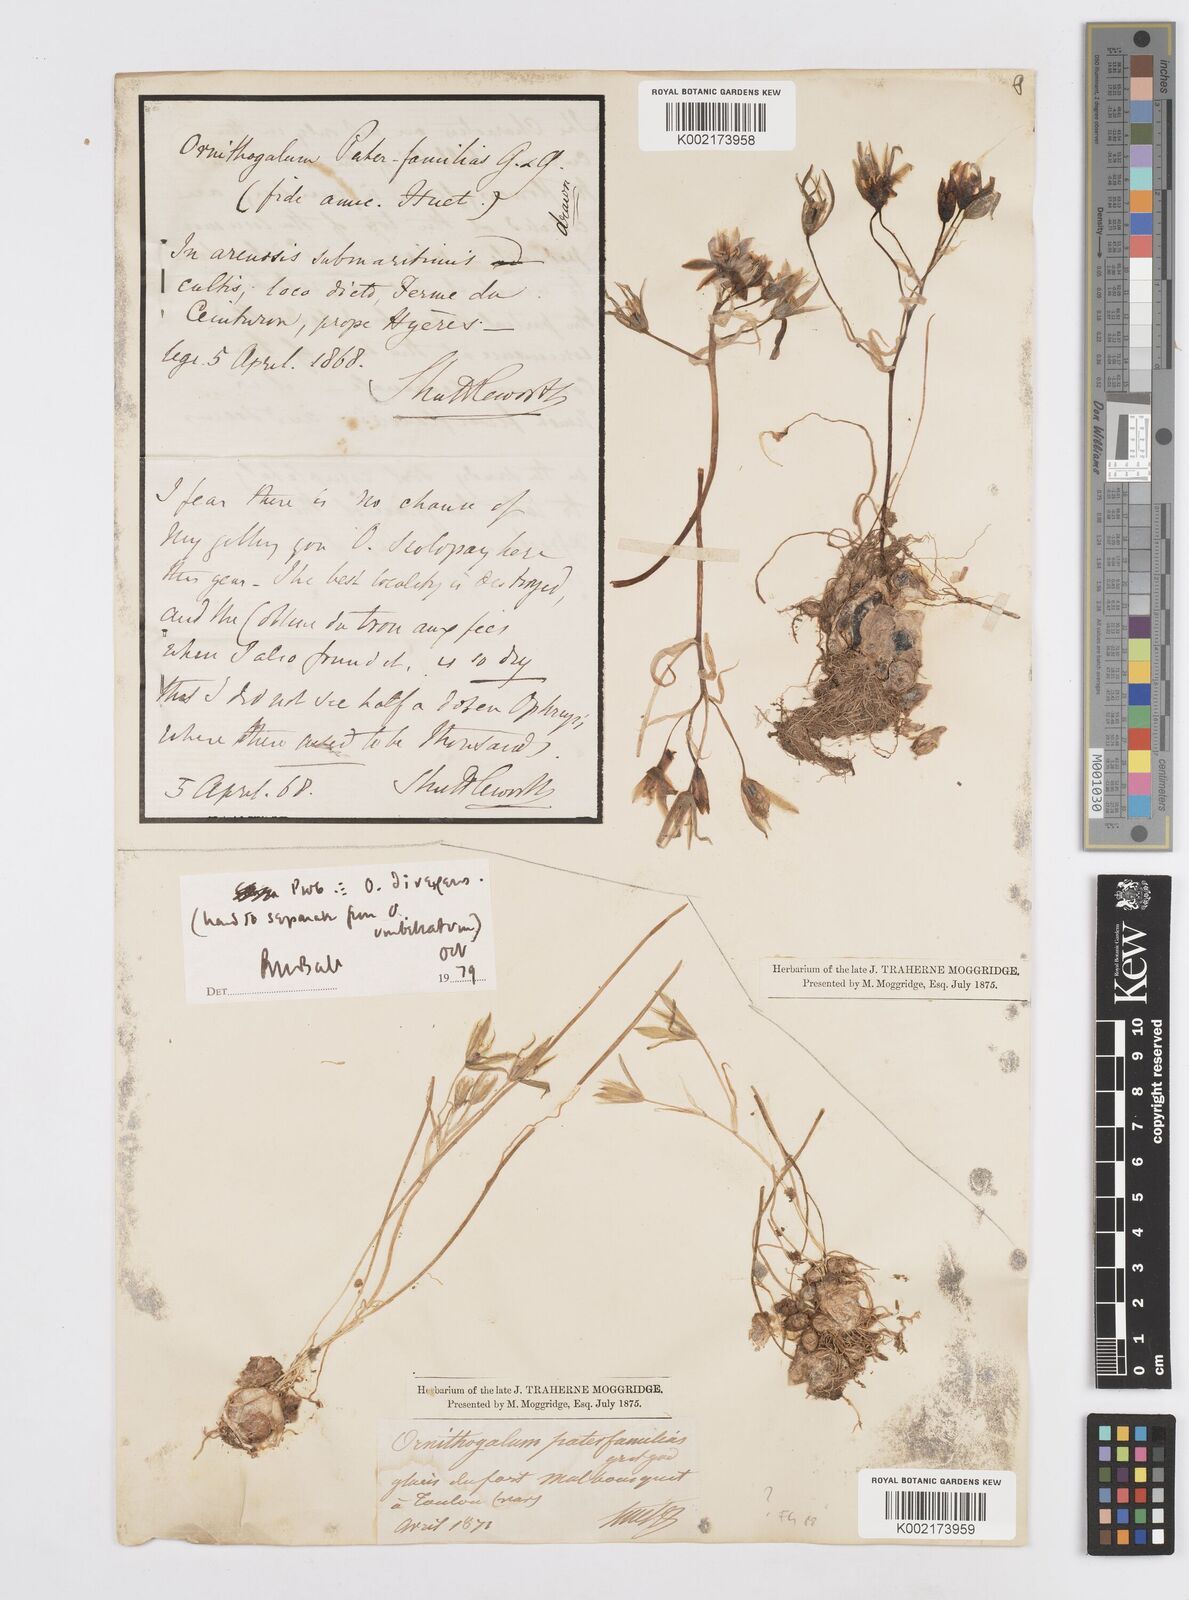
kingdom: Plantae
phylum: Tracheophyta
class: Liliopsida
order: Asparagales
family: Asparagaceae
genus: Ornithogalum
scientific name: Ornithogalum divergens
